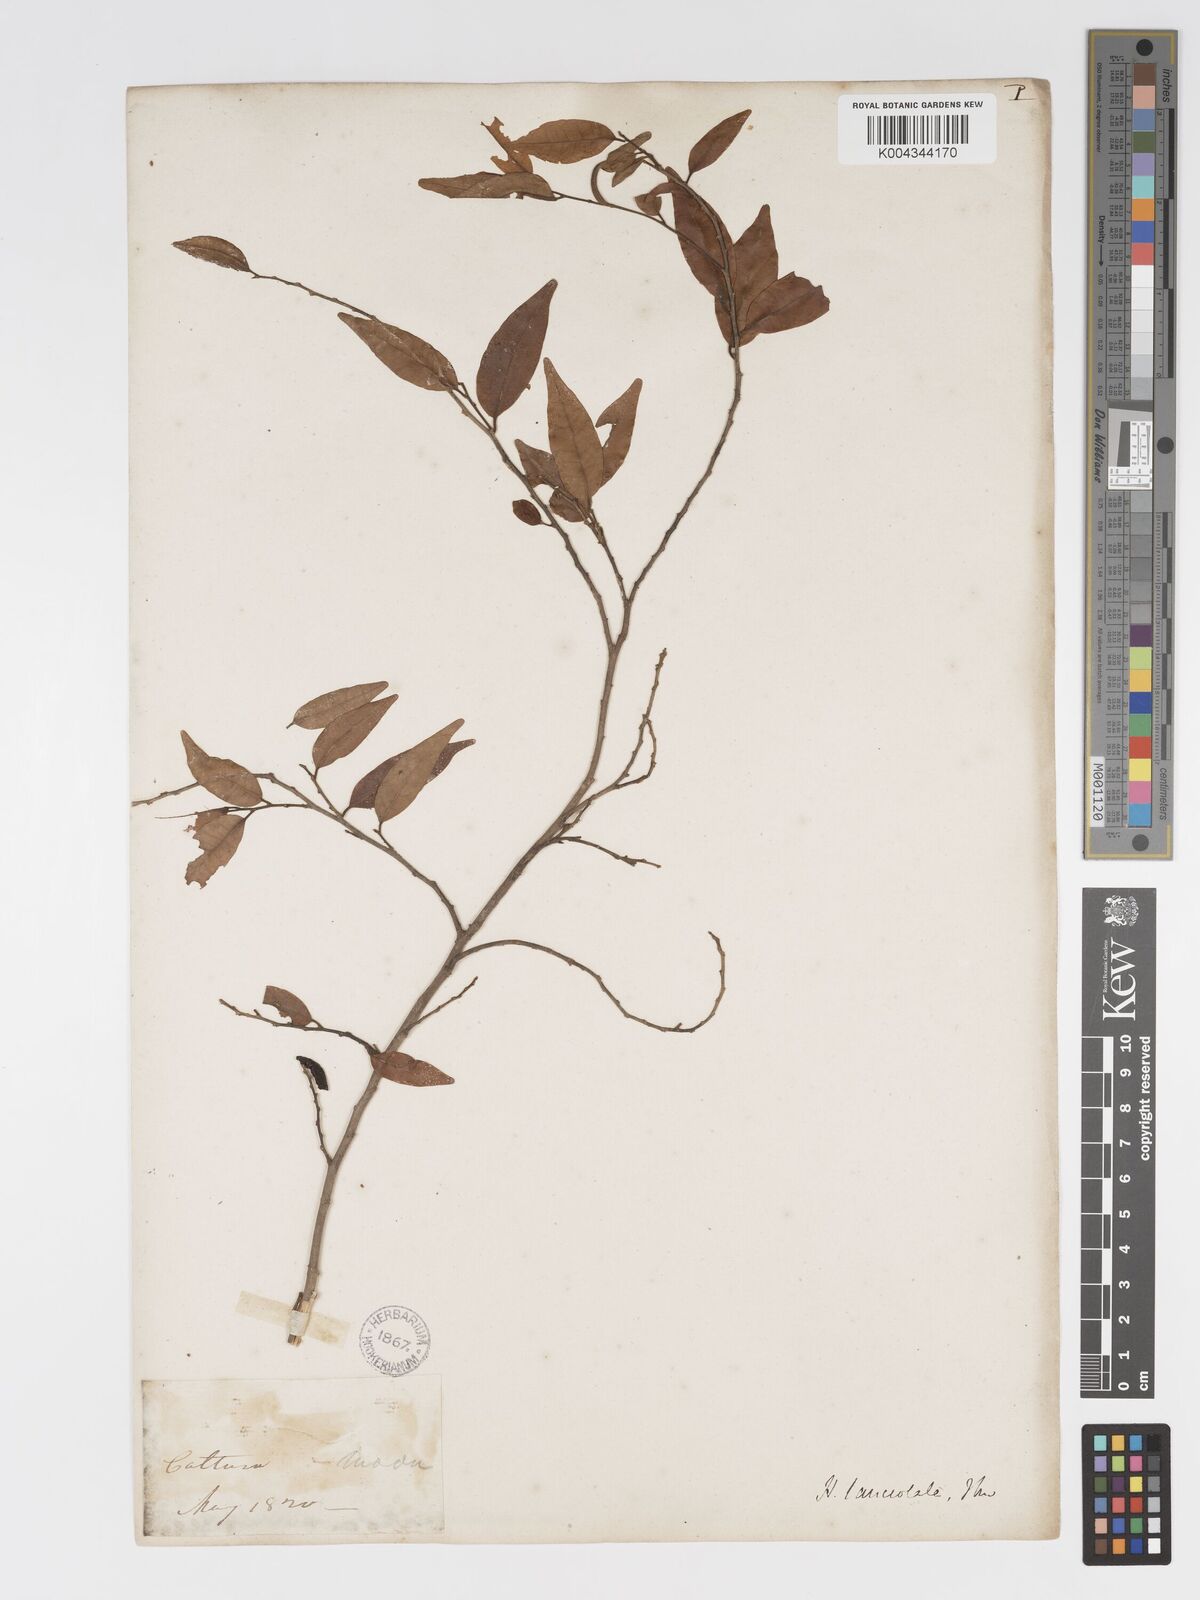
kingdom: Plantae
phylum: Tracheophyta
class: Magnoliopsida
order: Malpighiales
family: Putranjivaceae
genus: Drypetes
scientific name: Drypetes sumatrana
